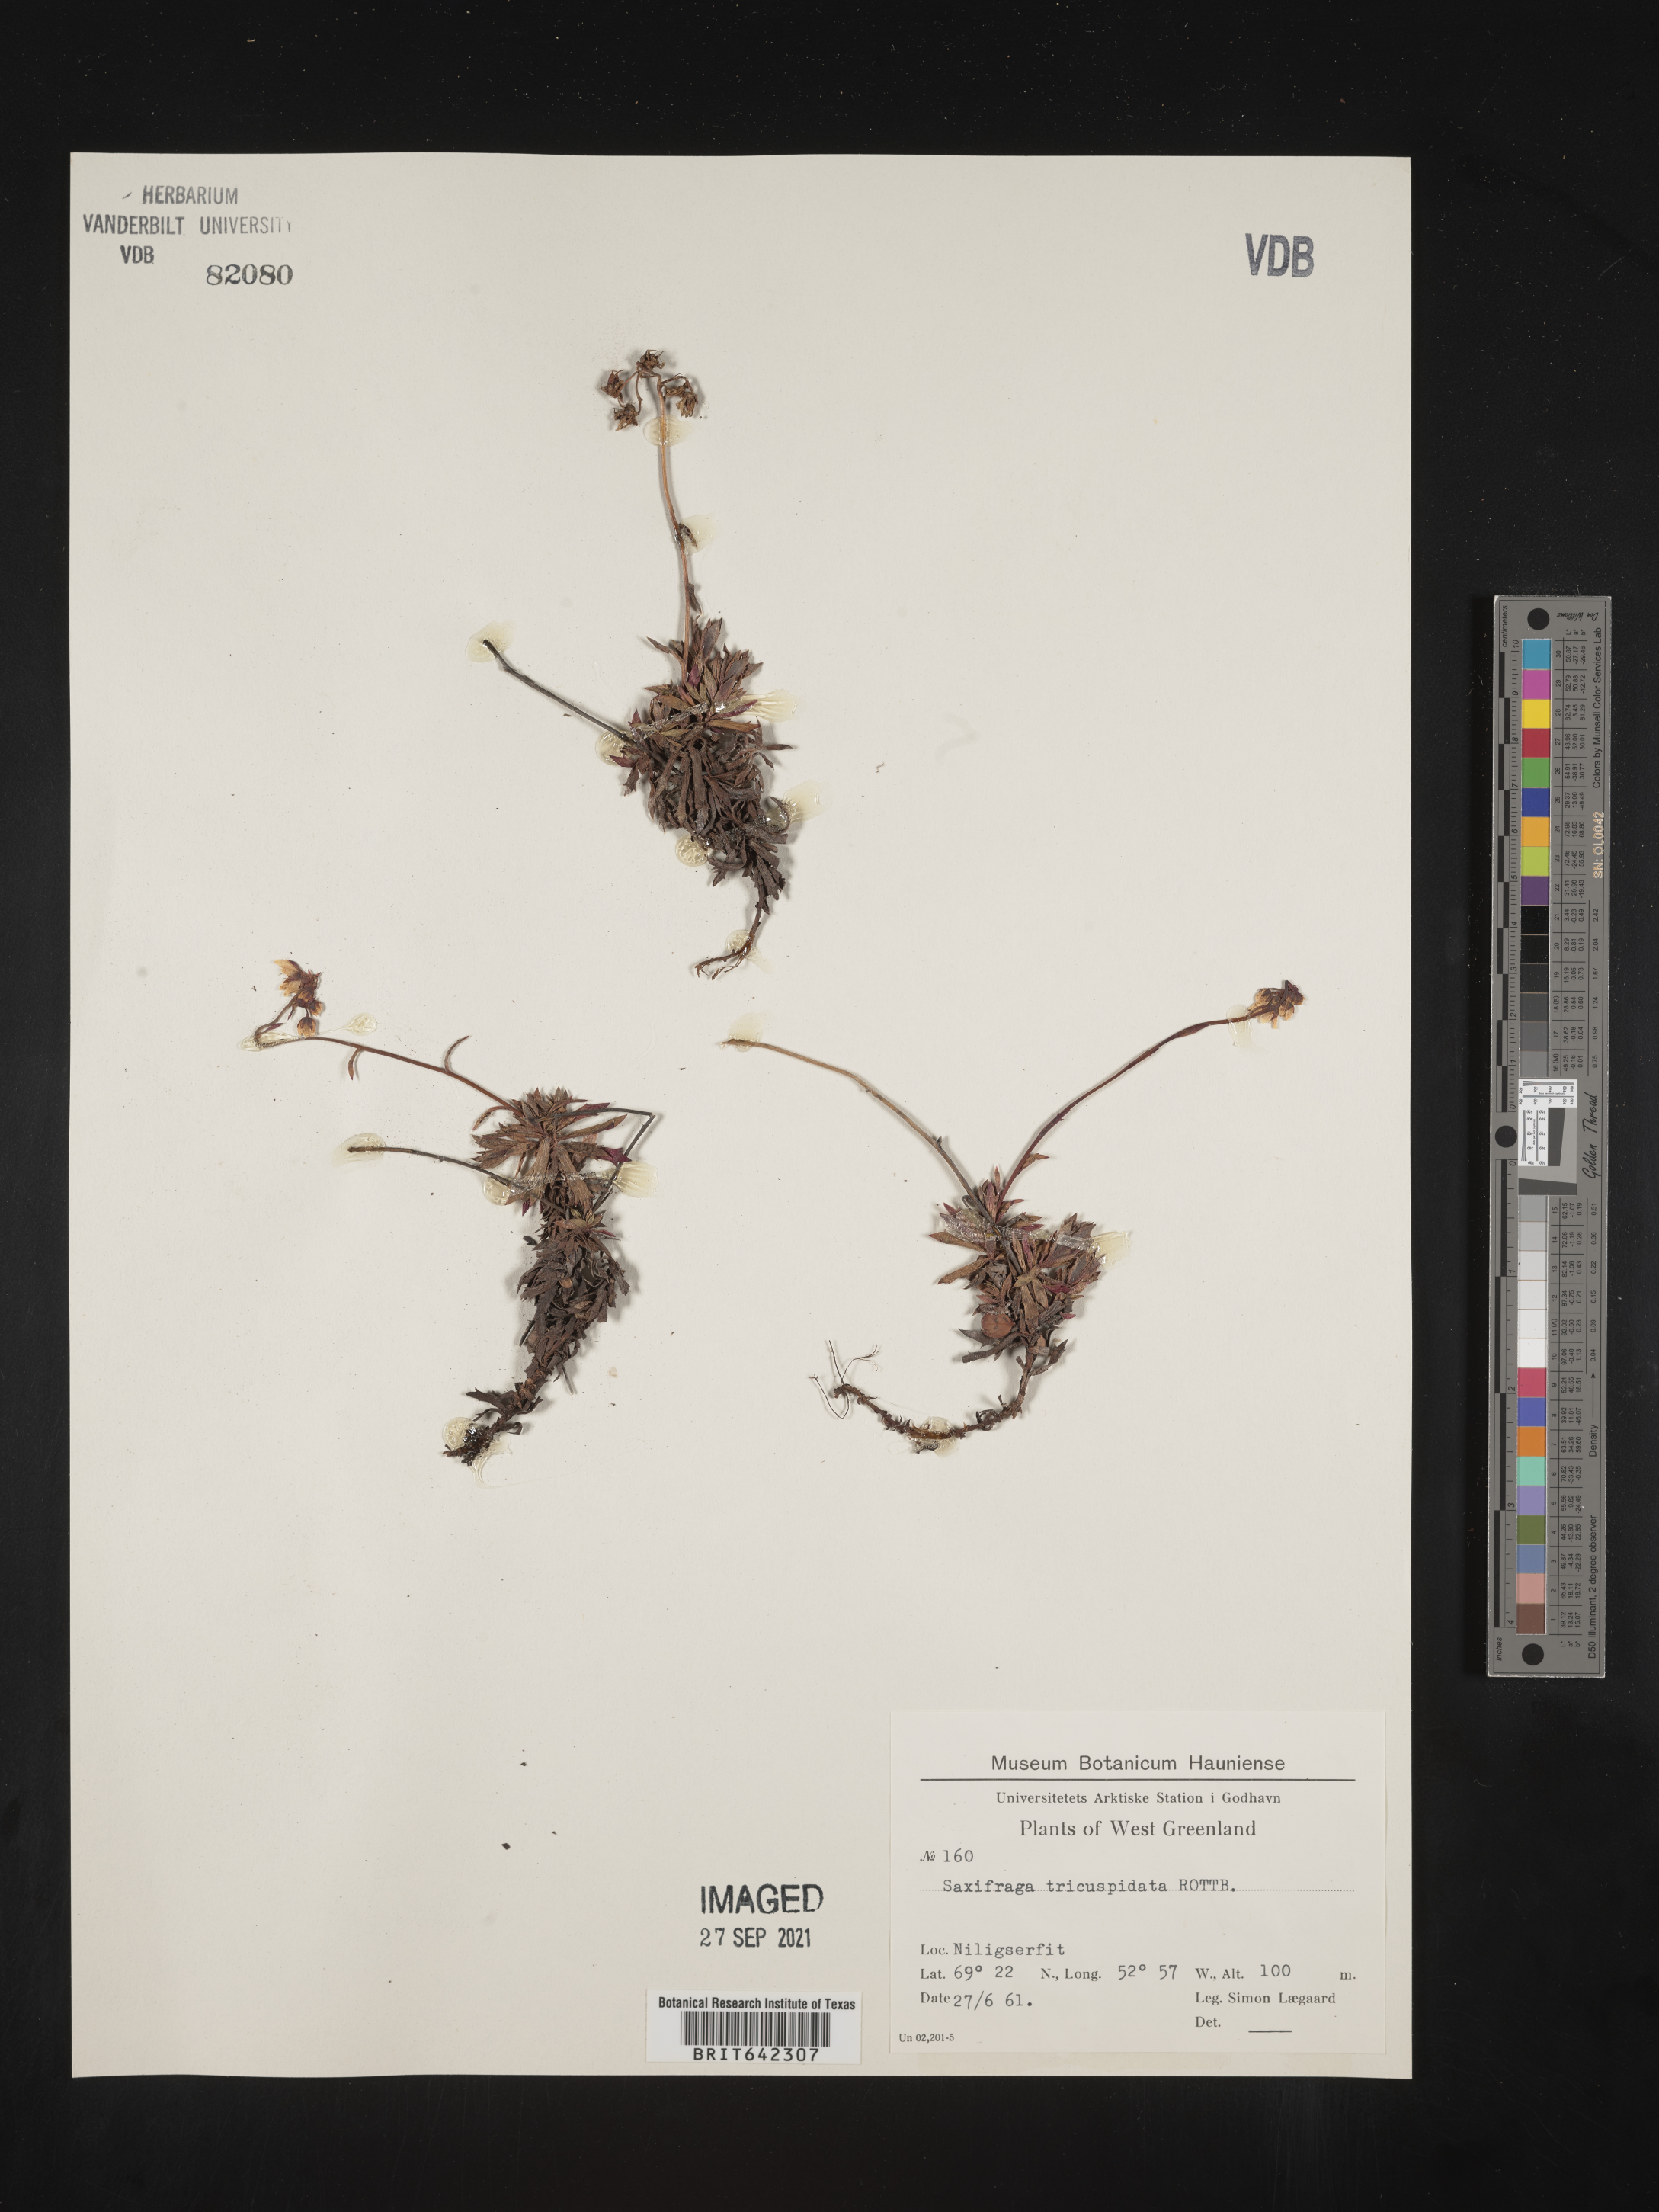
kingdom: Plantae
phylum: Tracheophyta
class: Magnoliopsida
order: Saxifragales
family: Saxifragaceae
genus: Saxifraga
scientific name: Saxifraga
